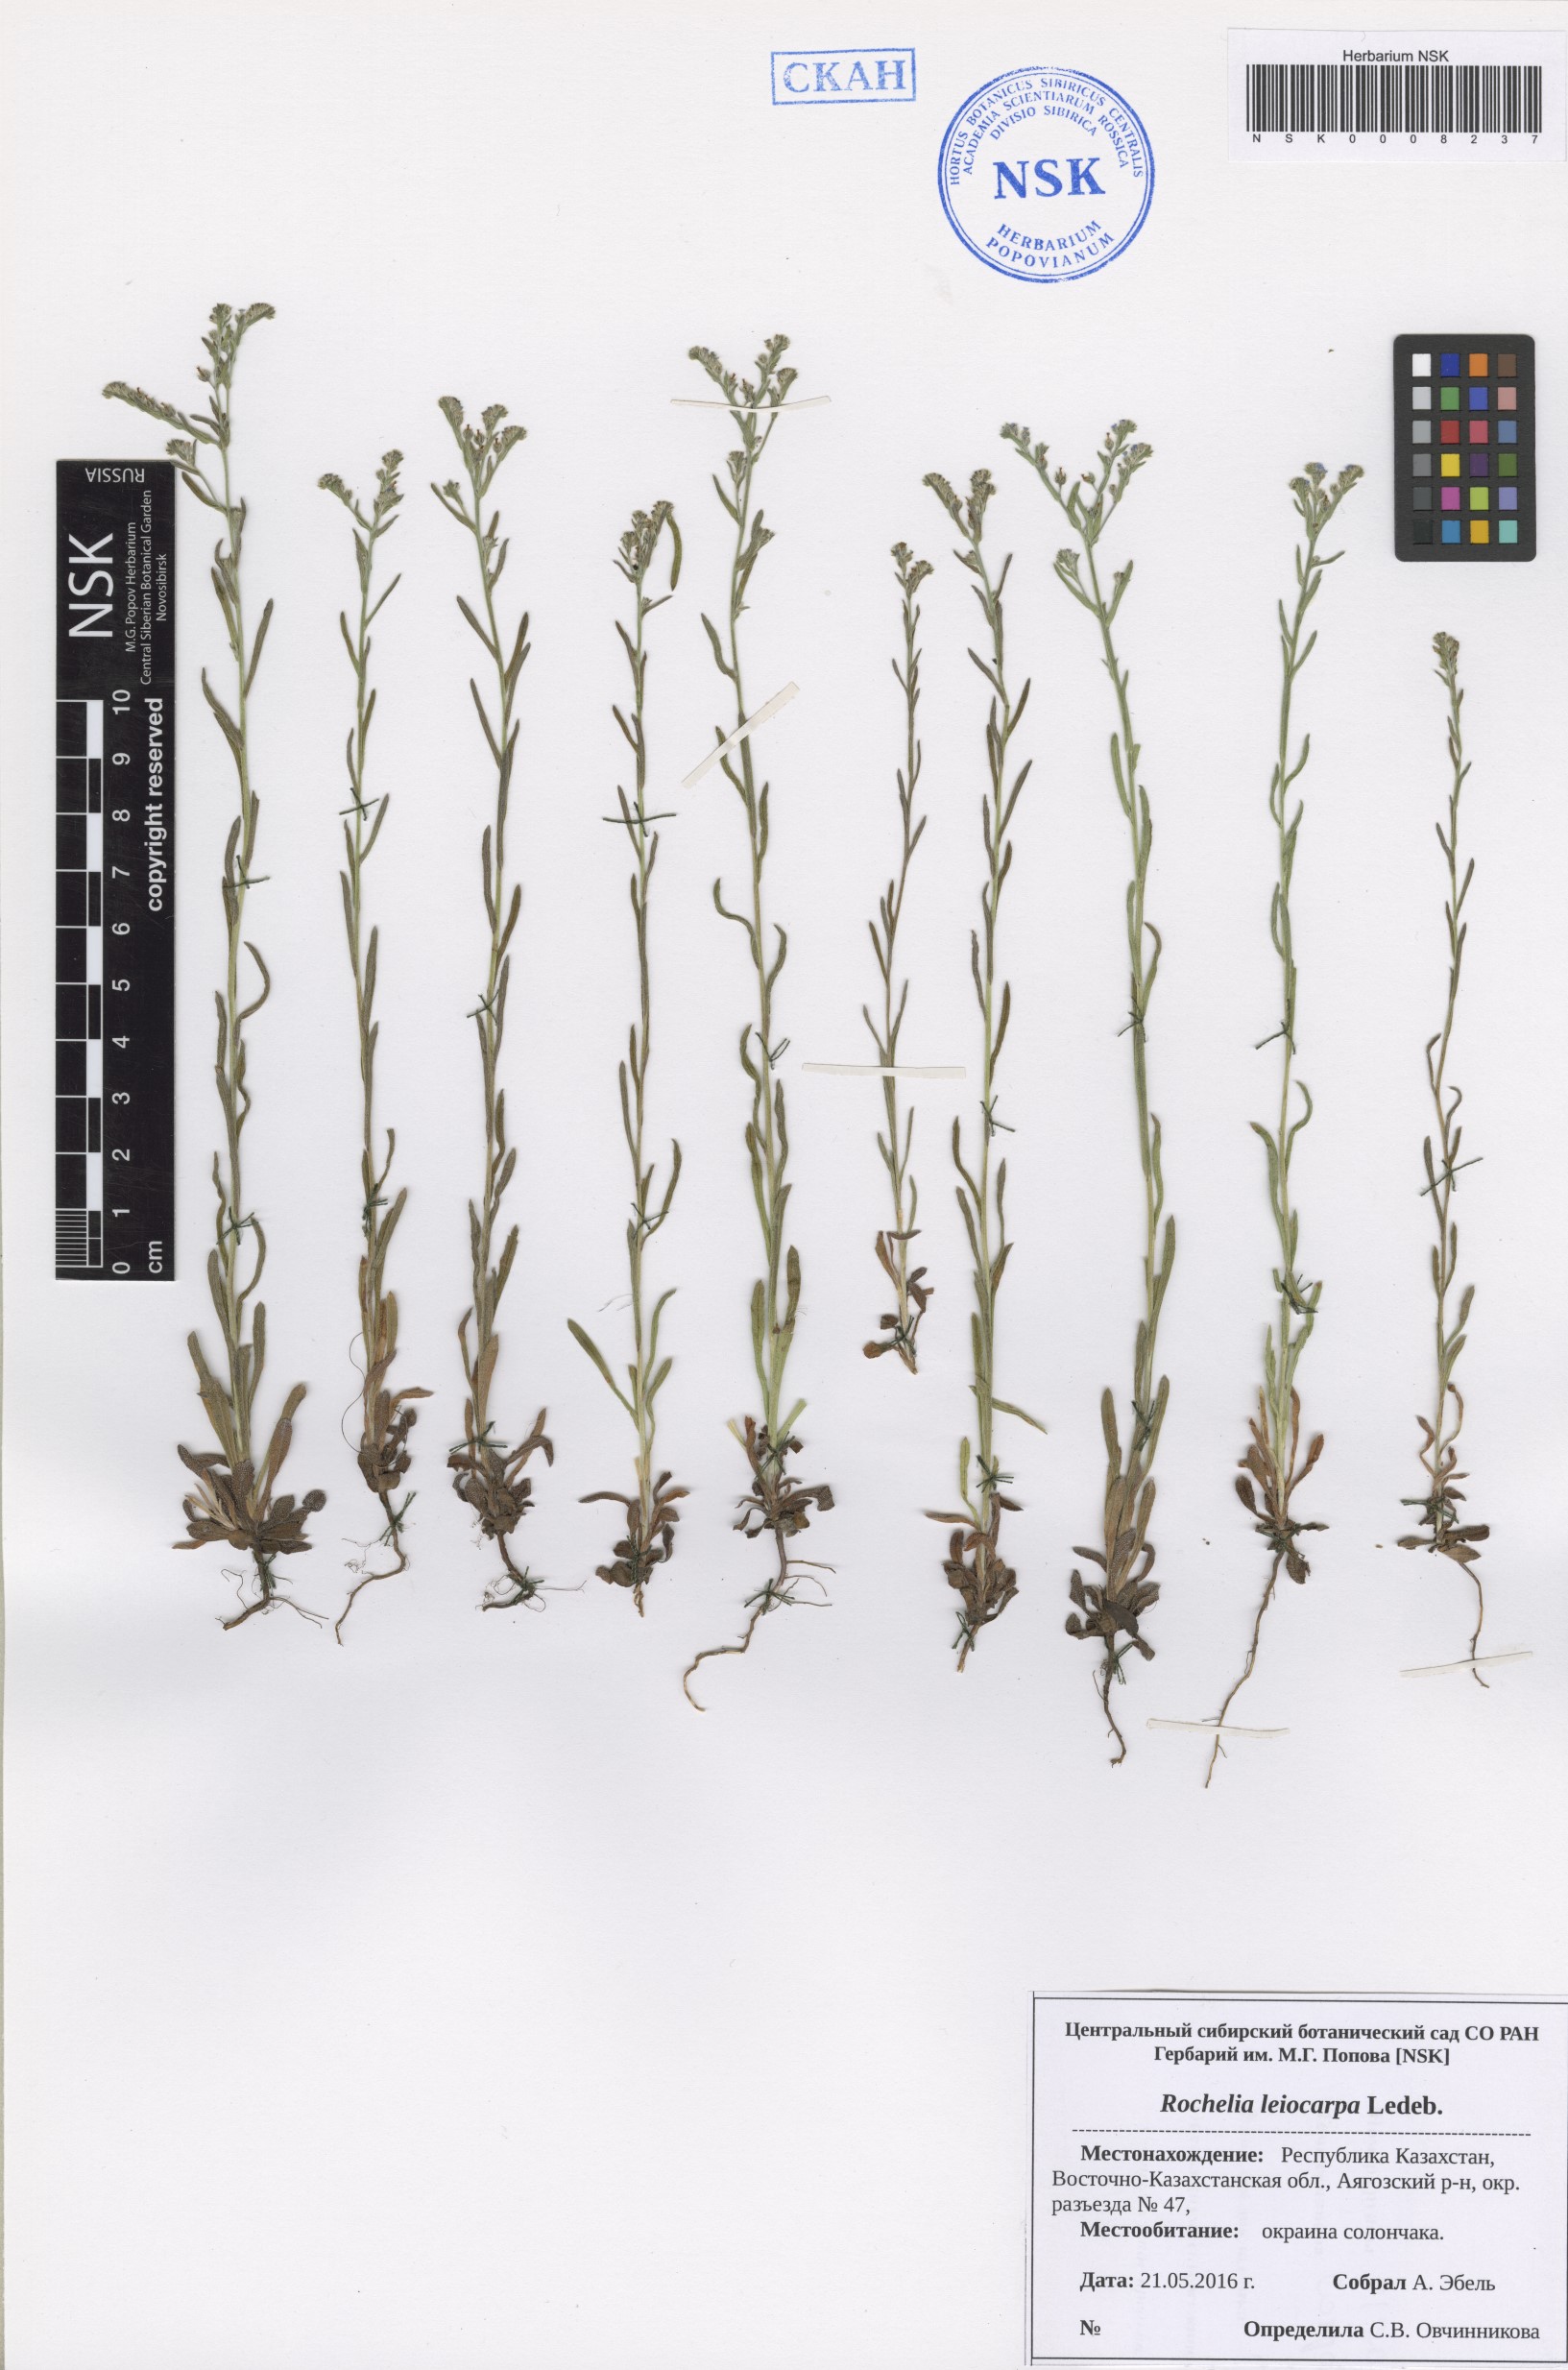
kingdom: Plantae
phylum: Tracheophyta
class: Magnoliopsida
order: Boraginales
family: Boraginaceae
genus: Rochelia
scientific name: Rochelia leiocarpa
